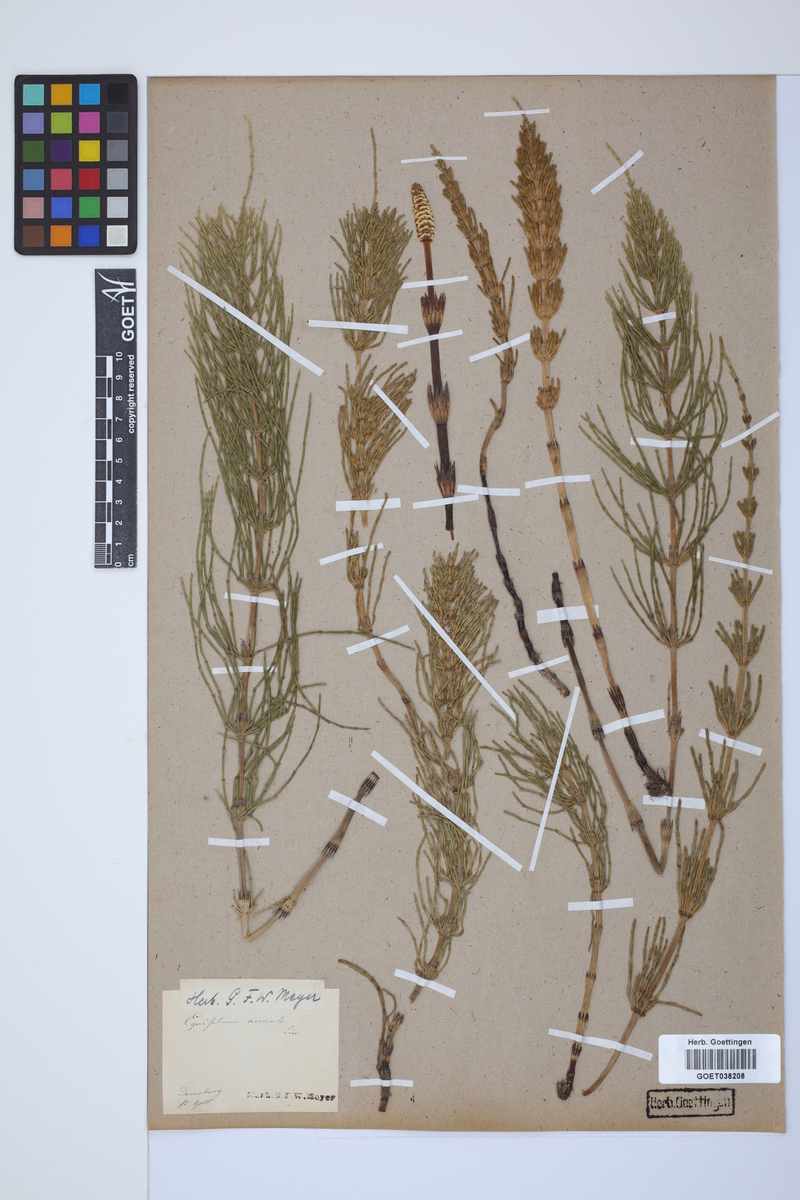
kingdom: Plantae
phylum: Tracheophyta
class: Polypodiopsida
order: Equisetales
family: Equisetaceae
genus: Equisetum
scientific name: Equisetum arvense
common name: Field horsetail
